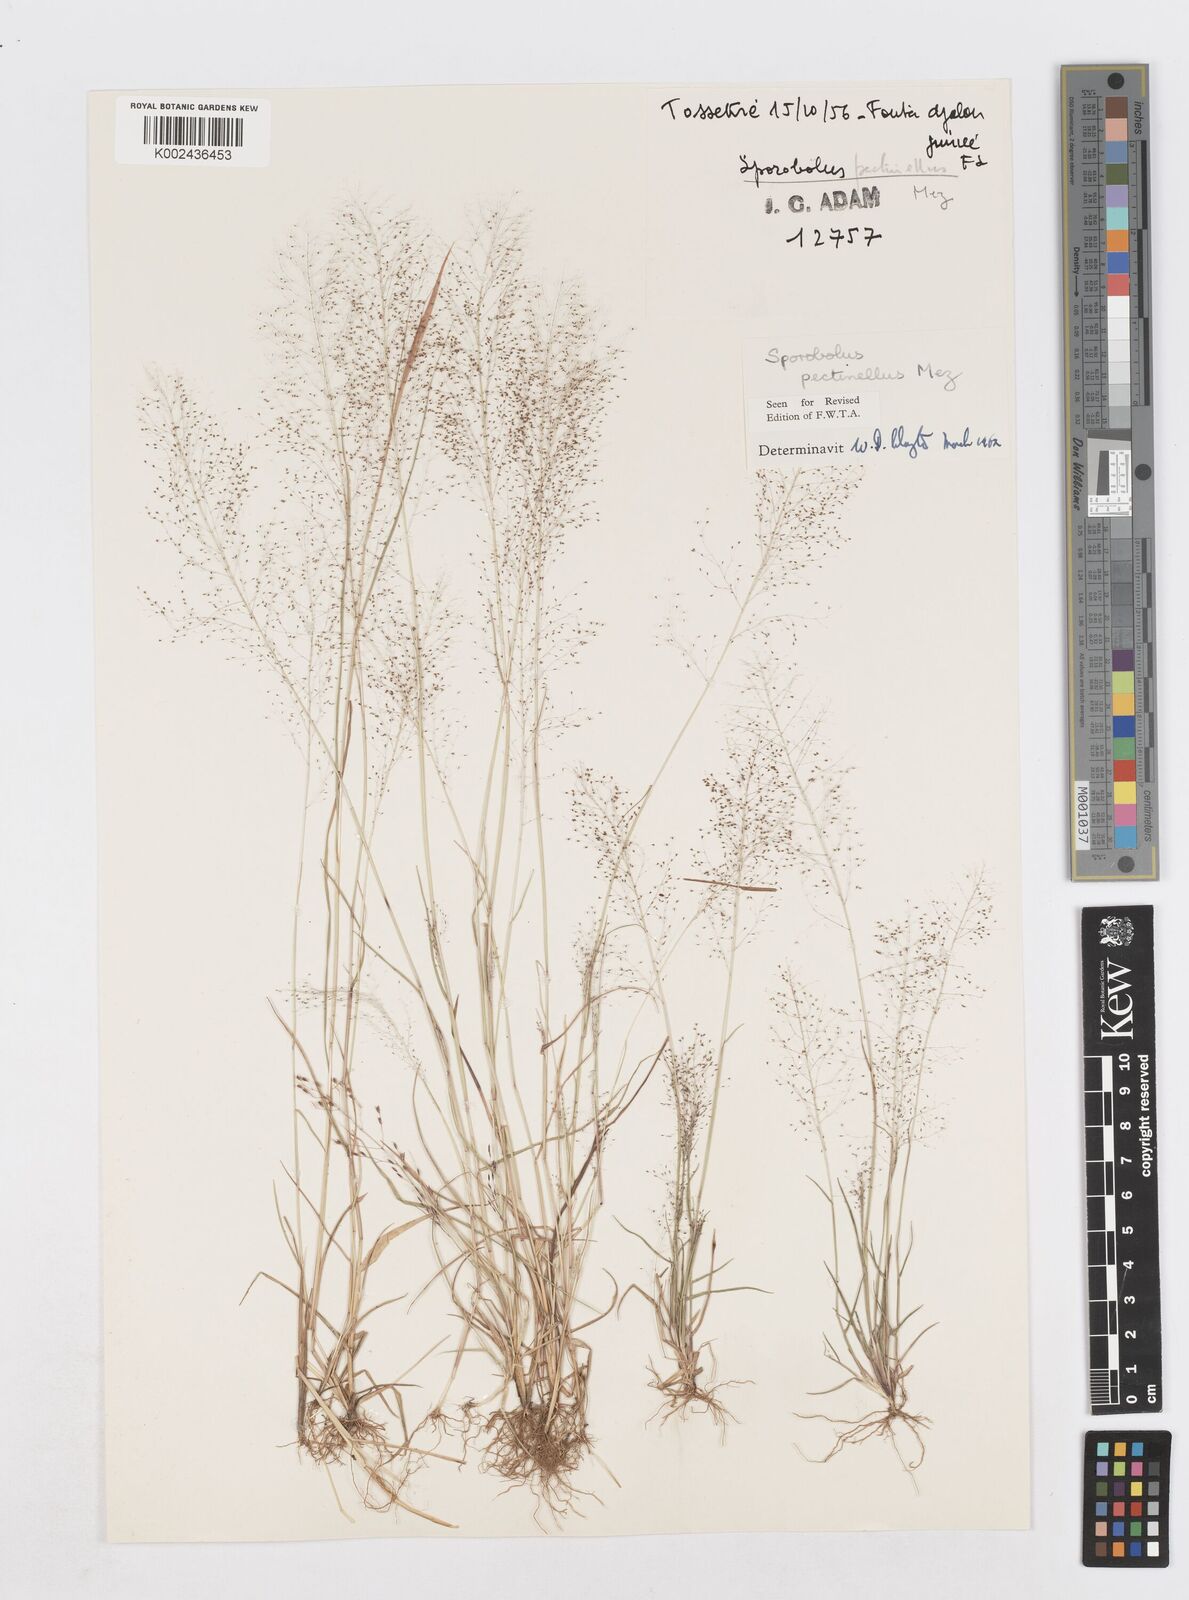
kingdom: Plantae
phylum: Tracheophyta
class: Liliopsida
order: Poales
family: Poaceae
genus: Sporobolus
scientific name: Sporobolus pectinellus
